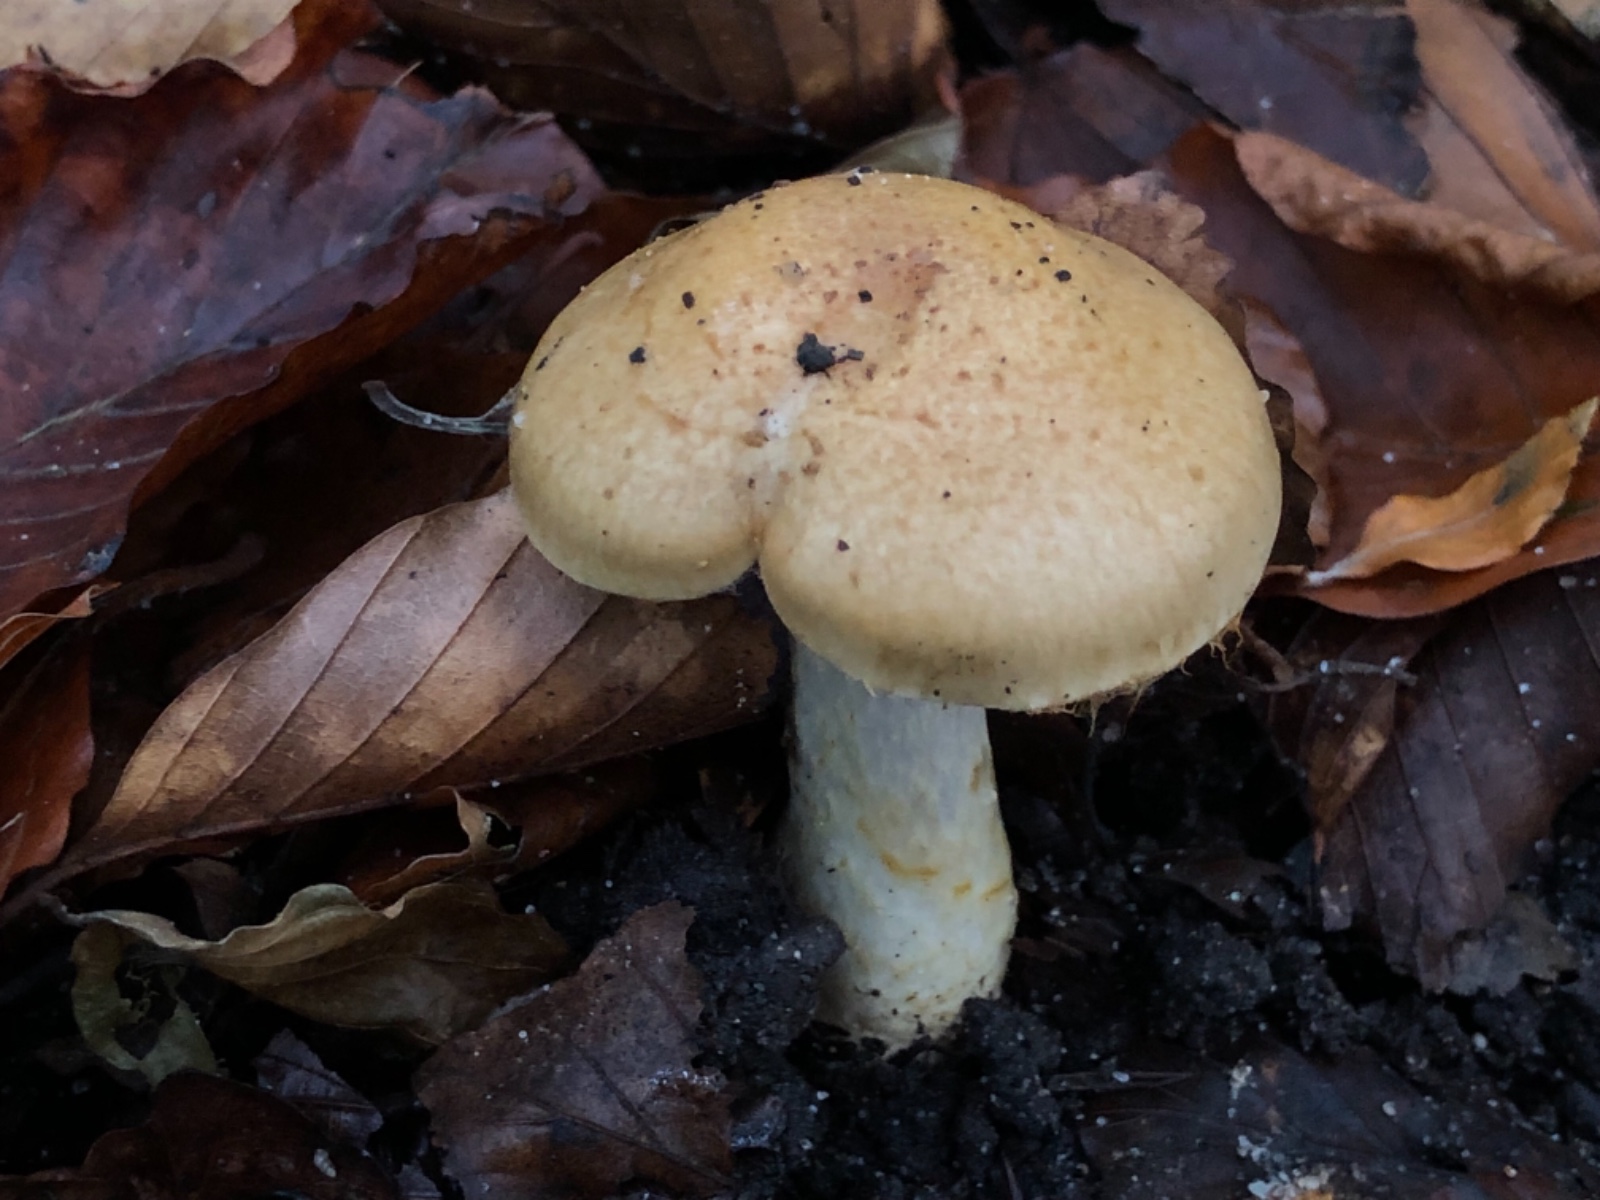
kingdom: Fungi
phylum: Basidiomycota
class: Agaricomycetes
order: Agaricales
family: Cortinariaceae
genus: Phlegmacium
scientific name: Phlegmacium cliduchus
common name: majs-slørhat
